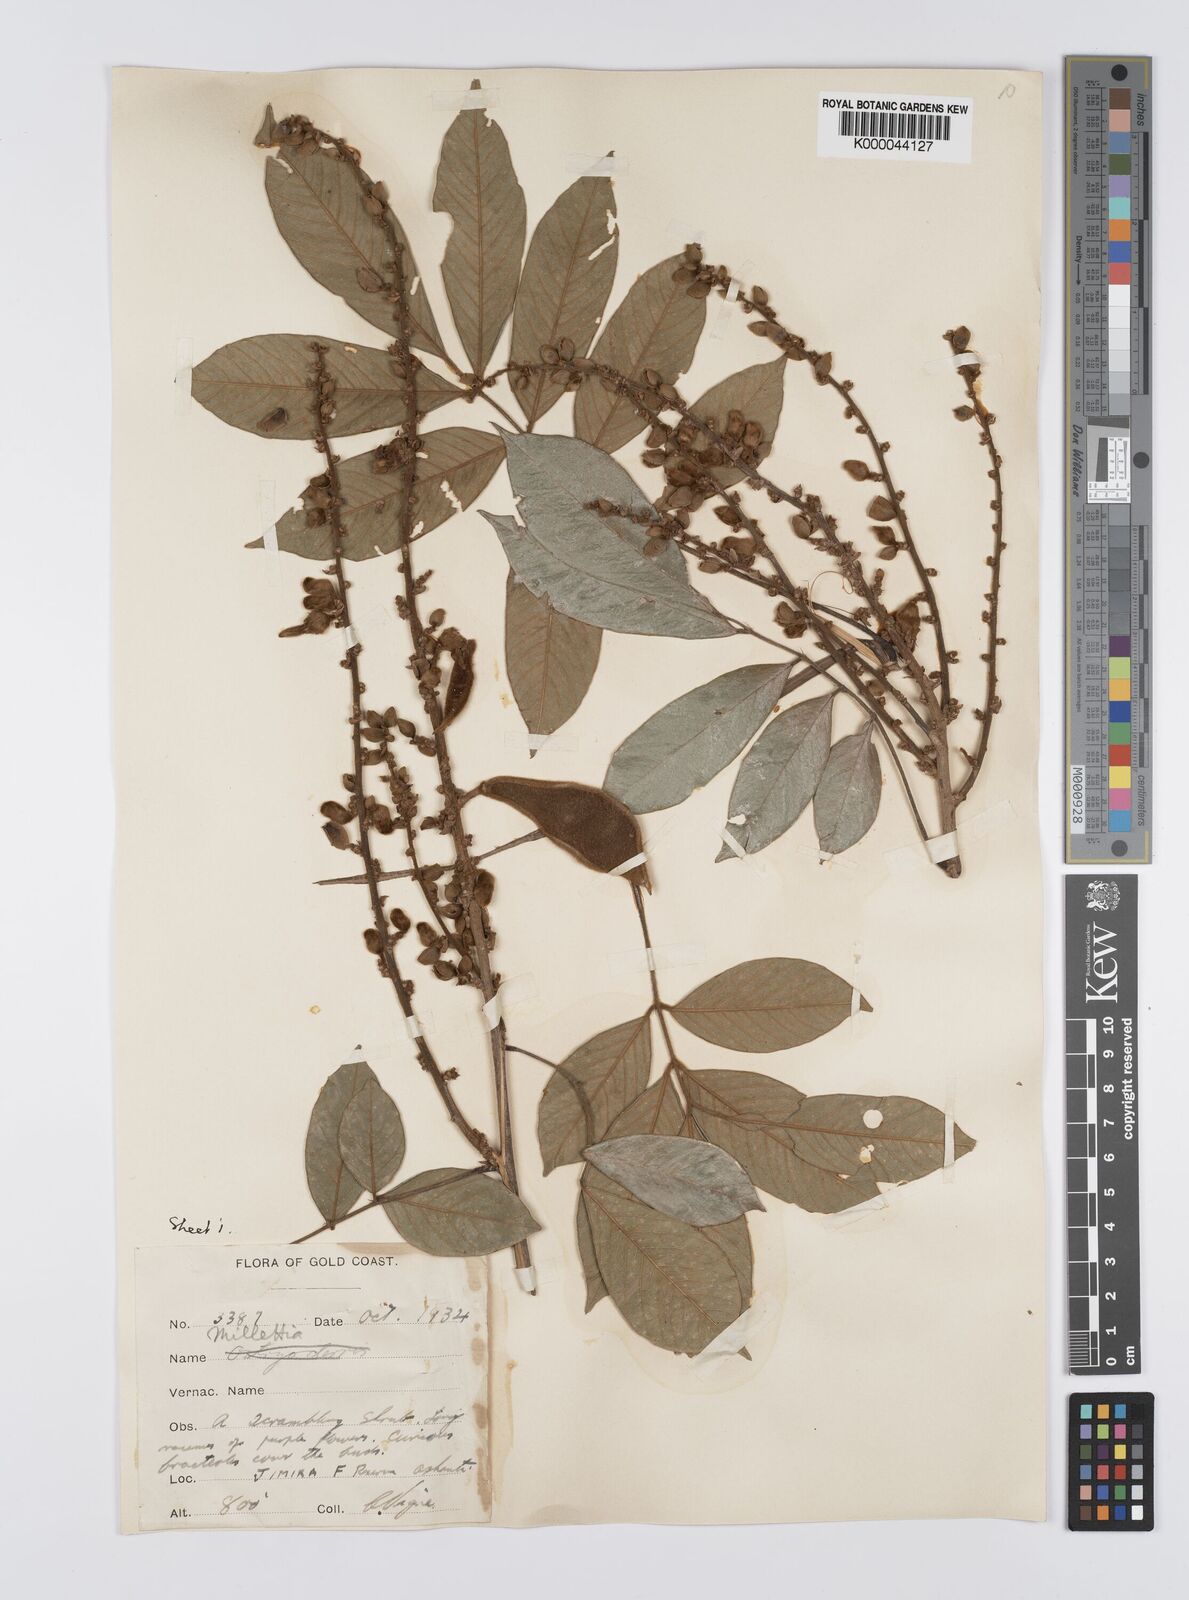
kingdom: Plantae
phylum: Tracheophyta
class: Magnoliopsida
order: Fabales
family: Fabaceae
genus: Platysepalum
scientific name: Platysepalum hirsutum
